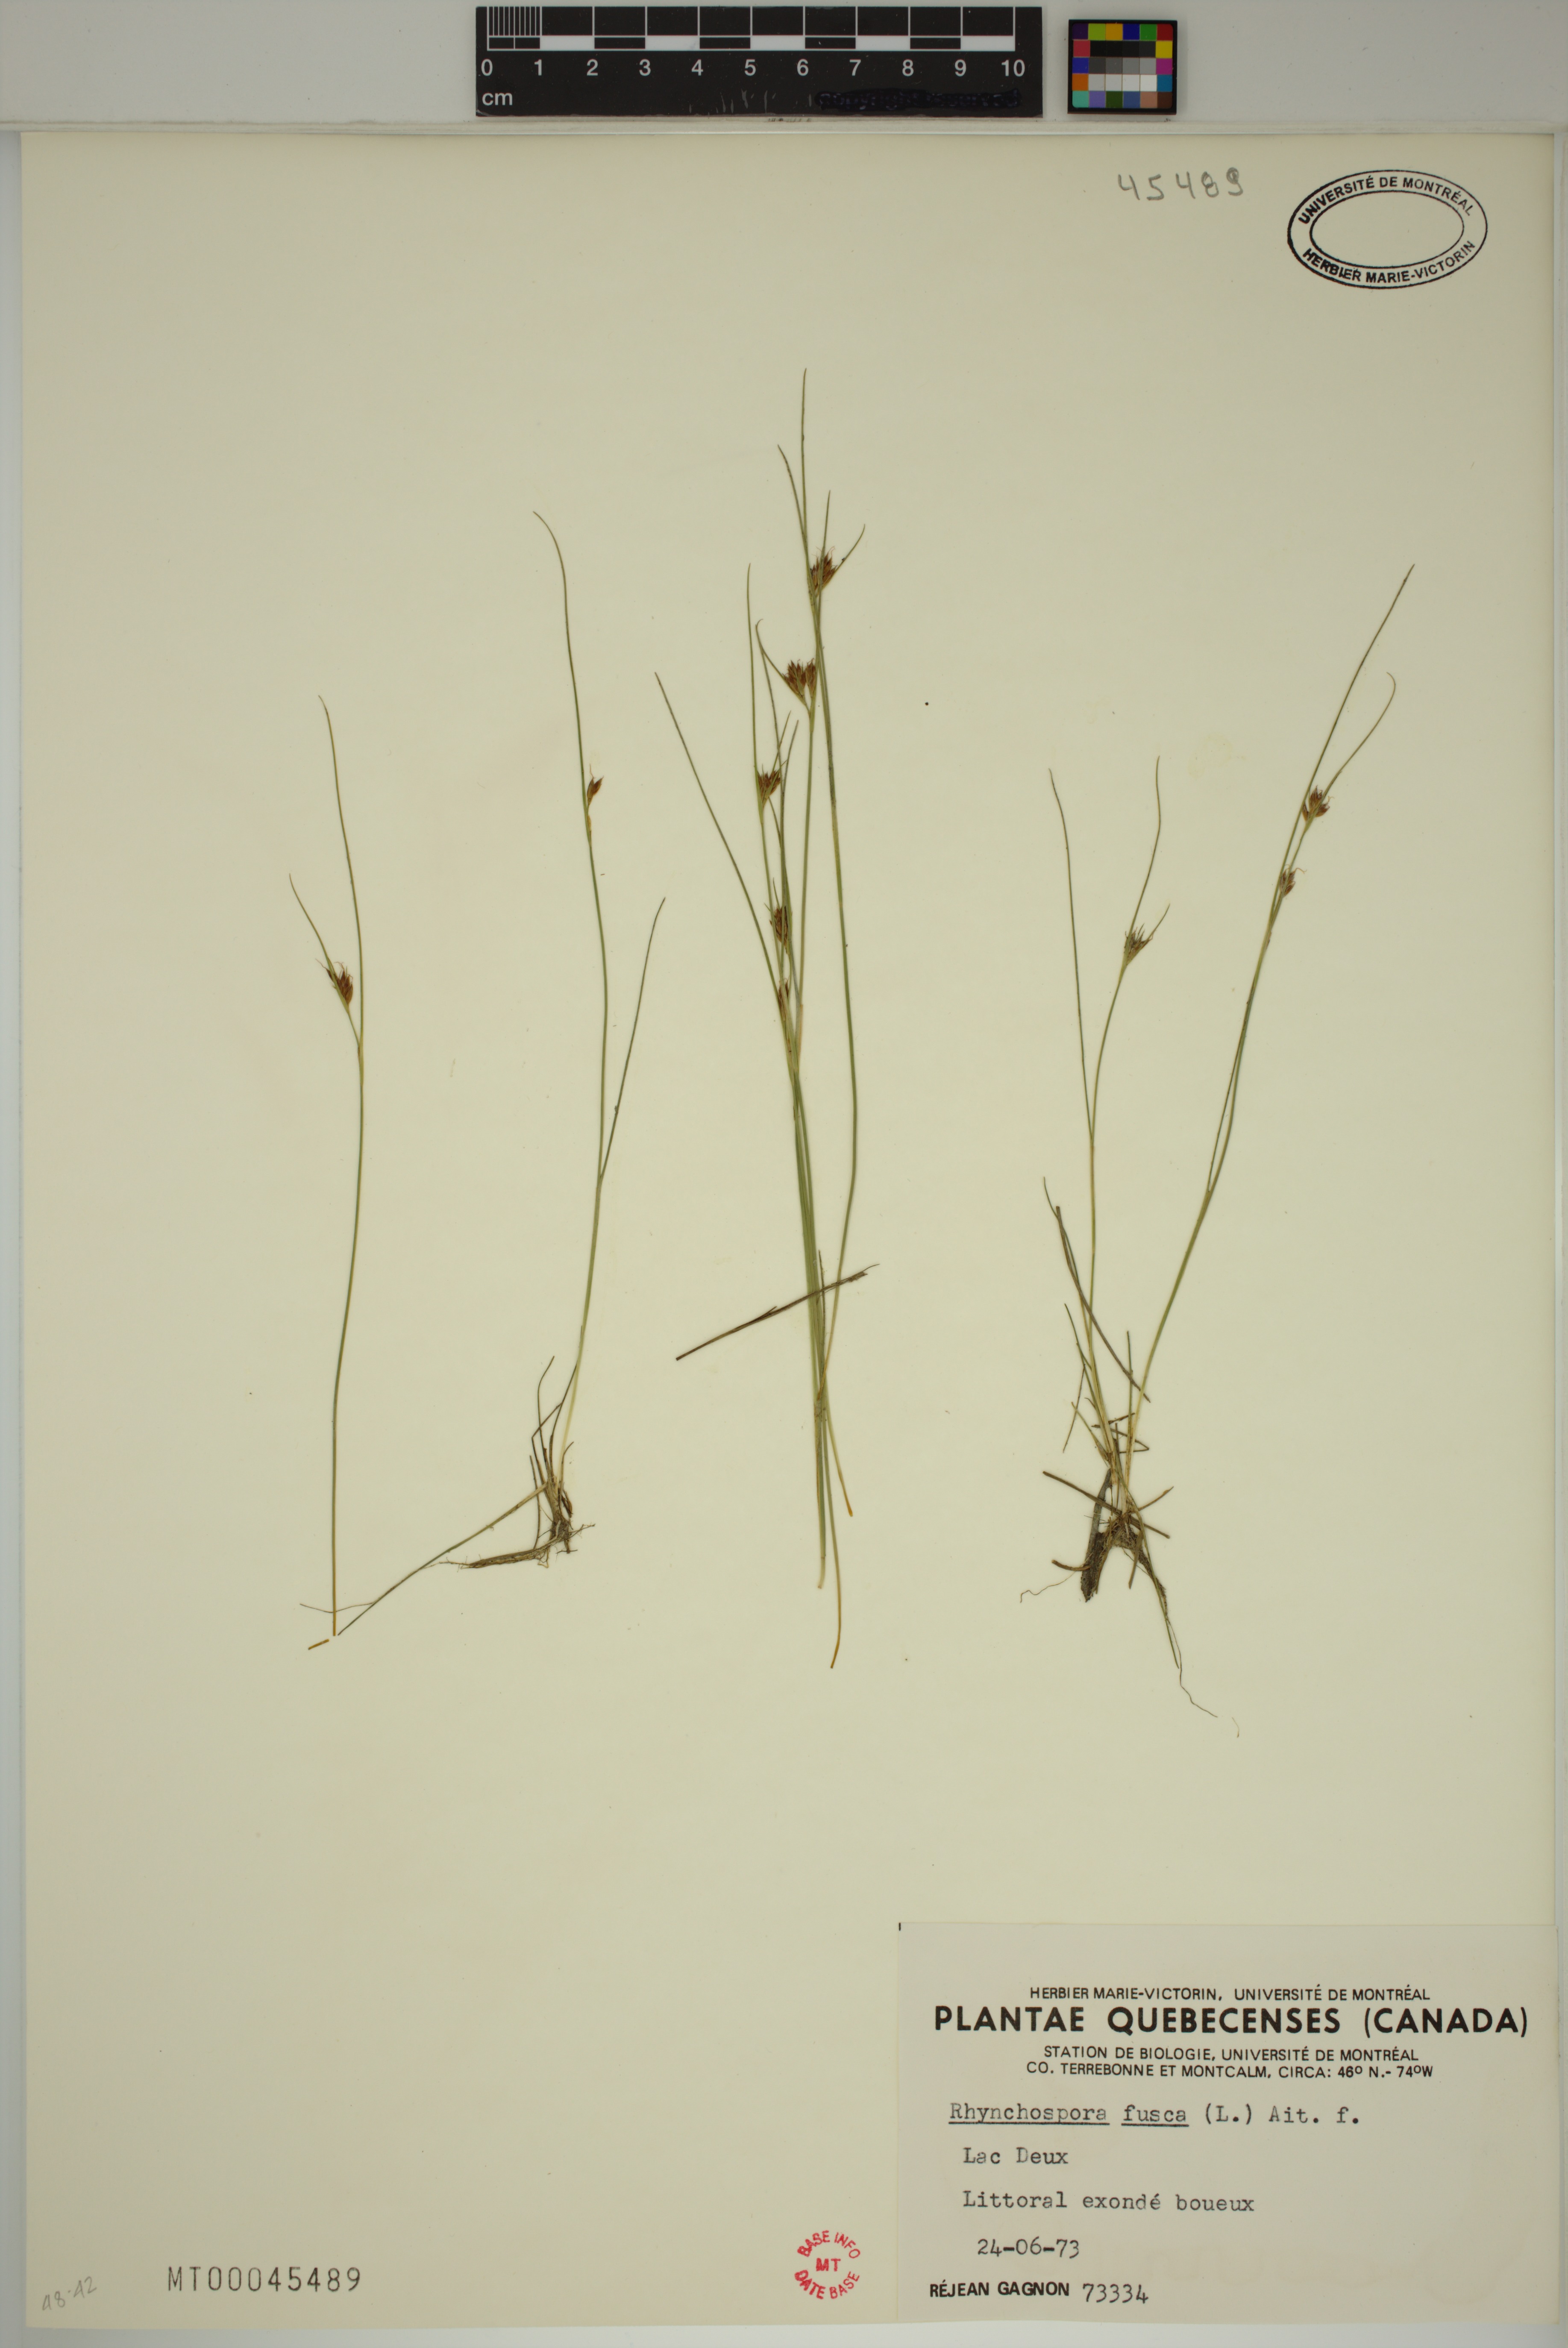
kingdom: Plantae
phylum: Tracheophyta
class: Liliopsida
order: Poales
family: Cyperaceae
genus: Rhynchospora
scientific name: Rhynchospora fusca
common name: Brown beak-sedge
